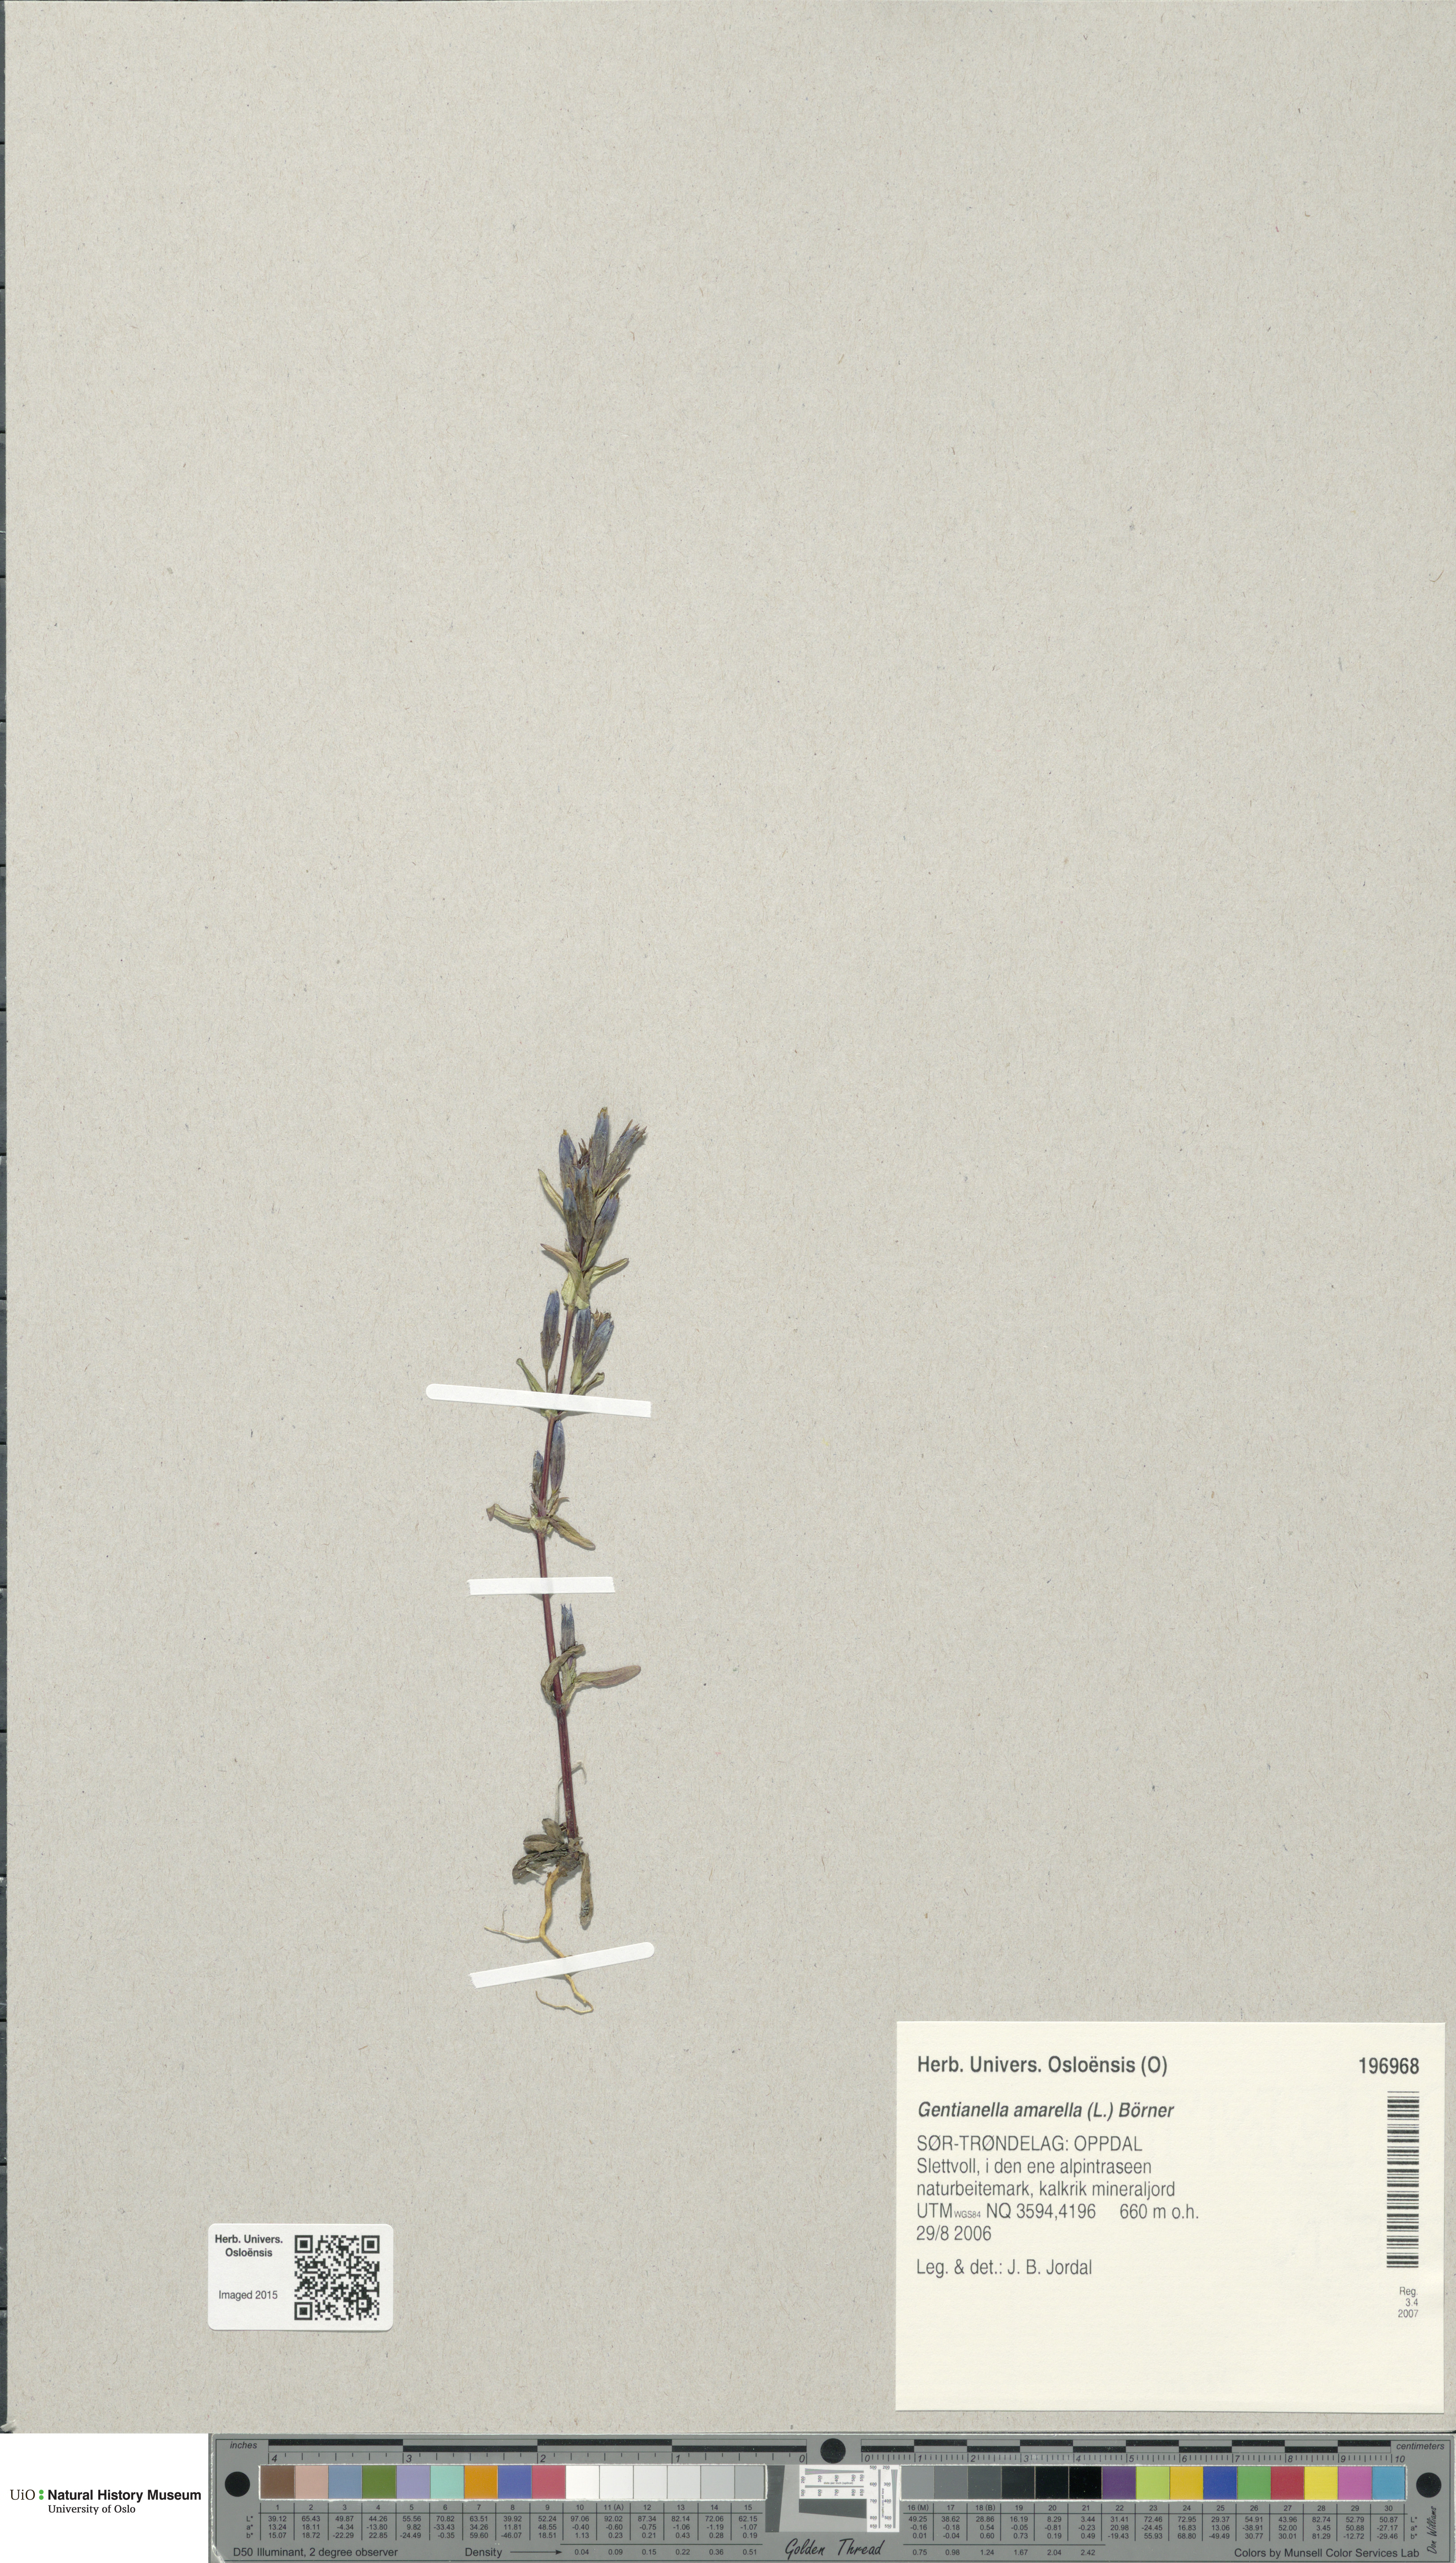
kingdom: Plantae
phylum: Tracheophyta
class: Magnoliopsida
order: Gentianales
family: Gentianaceae
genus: Gentianella
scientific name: Gentianella amarella
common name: Autumn gentian
